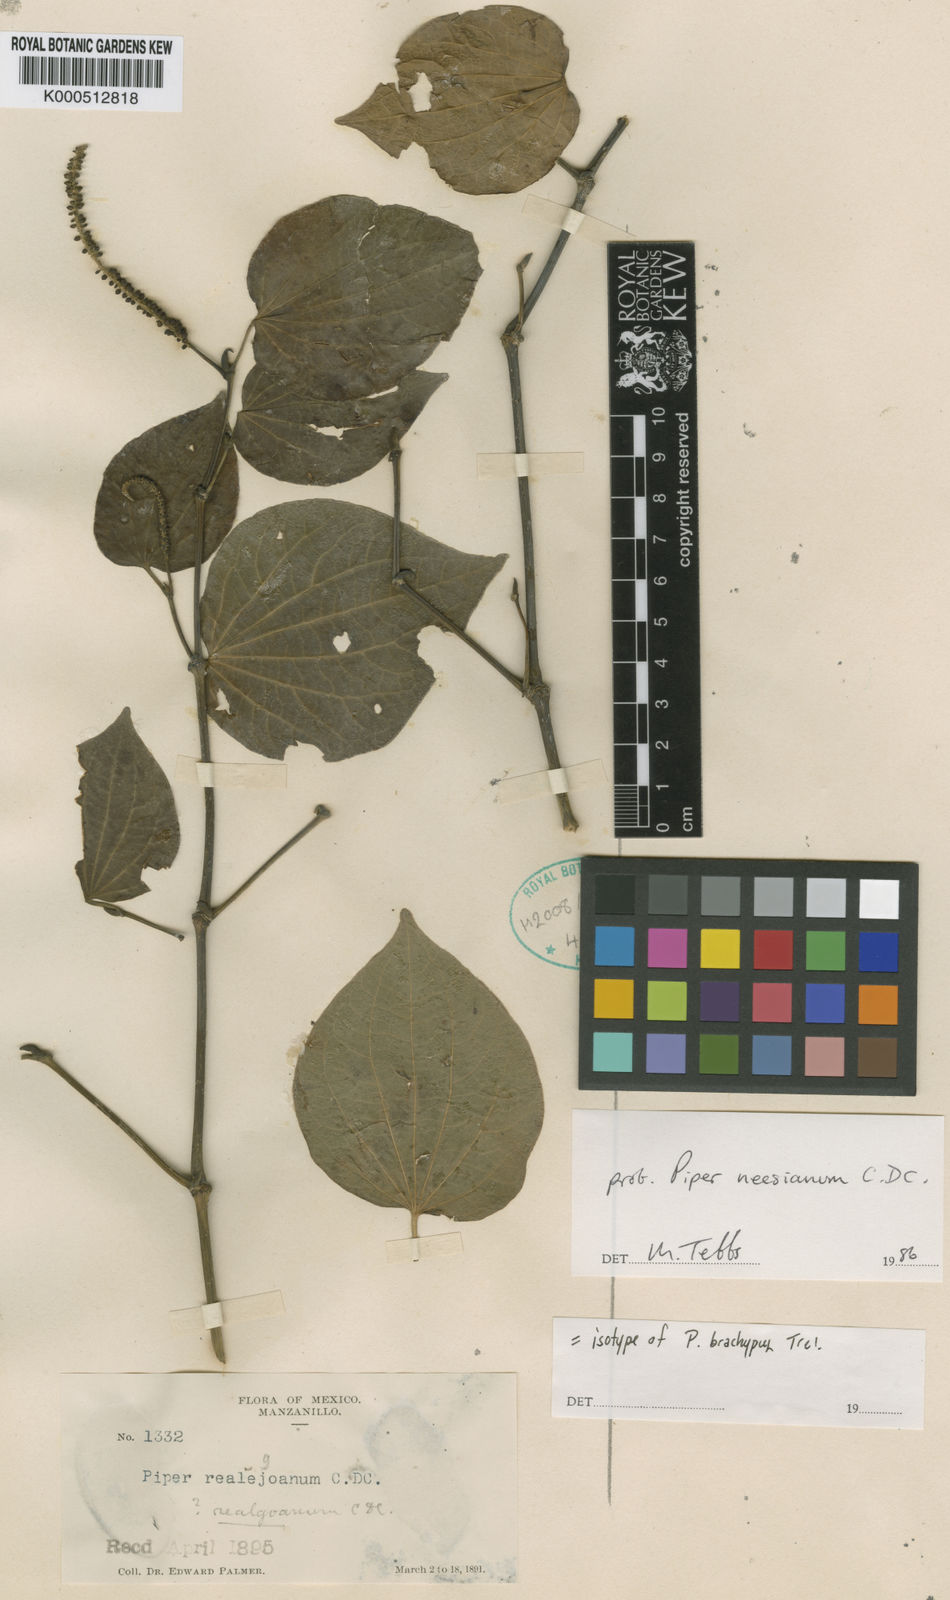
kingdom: Plantae
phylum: Tracheophyta
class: Magnoliopsida
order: Piperales
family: Piperaceae
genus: Piper
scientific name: Piper brachypus
